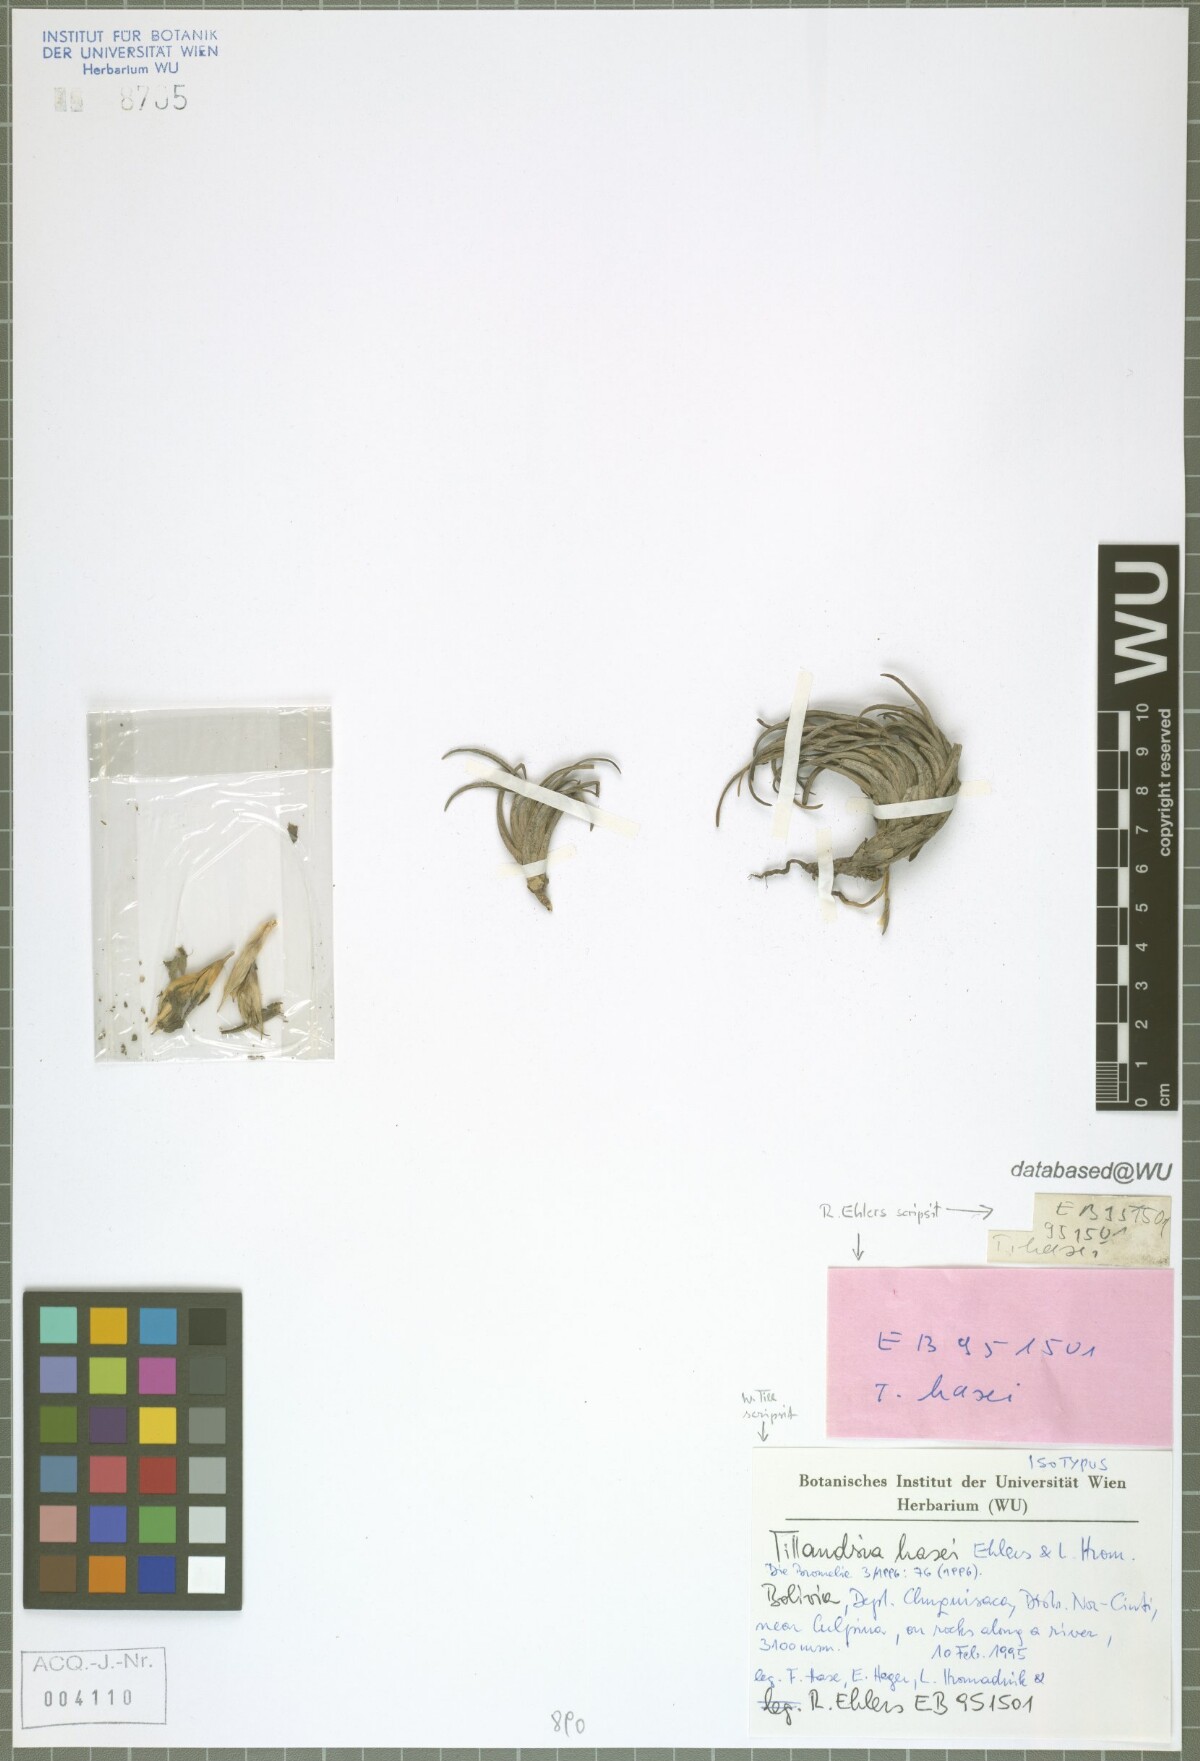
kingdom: Plantae
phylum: Tracheophyta
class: Liliopsida
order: Poales
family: Bromeliaceae
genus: Tillandsia
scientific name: Tillandsia hasei
